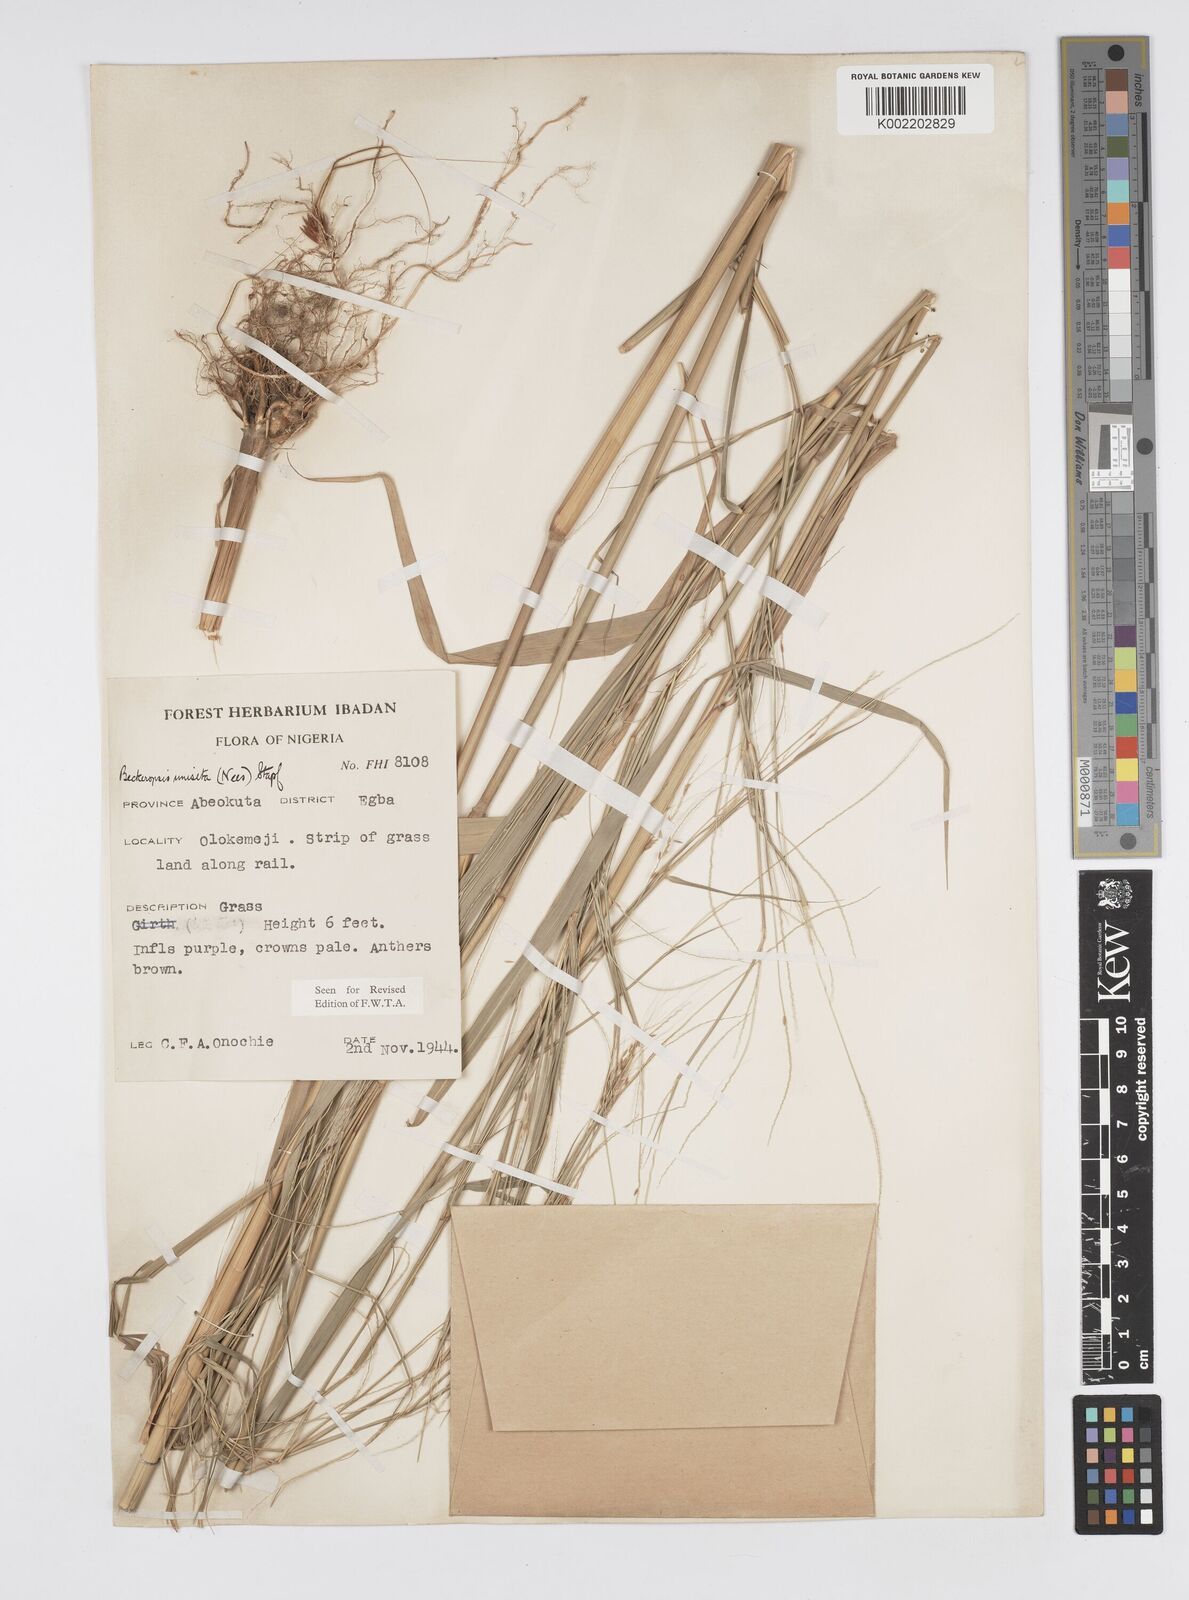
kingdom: Plantae
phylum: Tracheophyta
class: Liliopsida
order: Poales
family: Poaceae
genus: Cenchrus
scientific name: Cenchrus unisetus
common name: Natal grass
